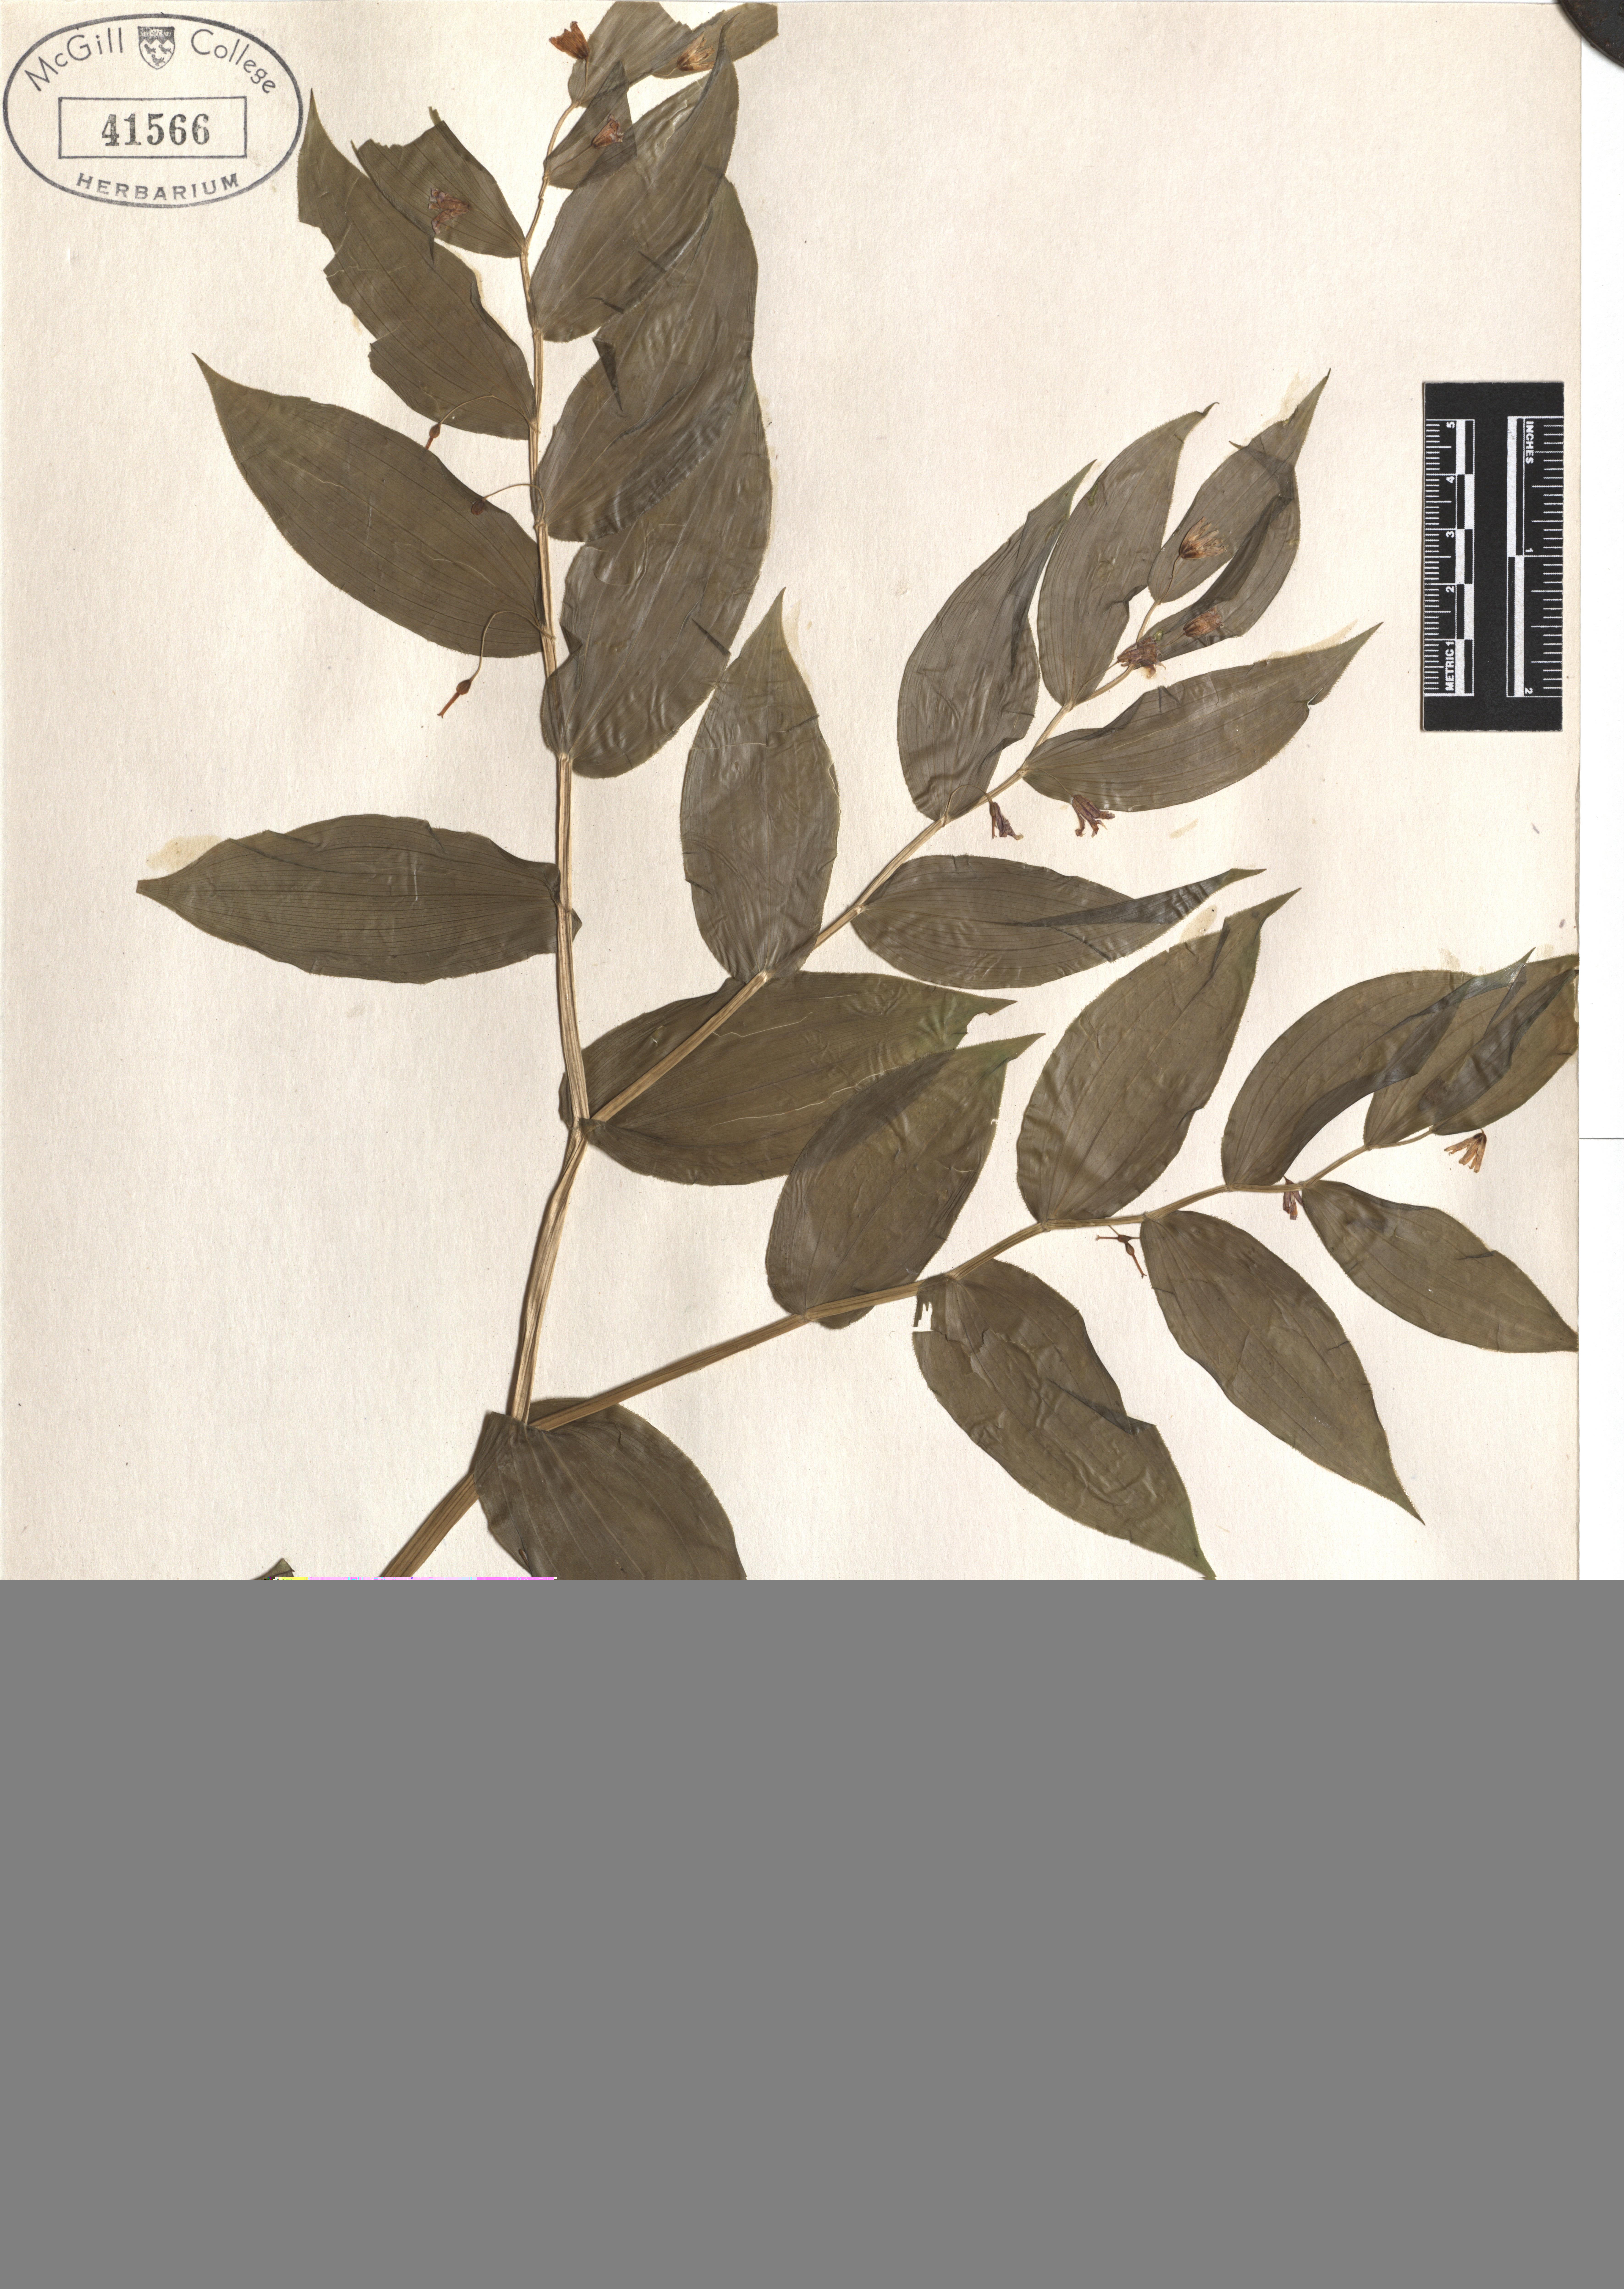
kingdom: Plantae
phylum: Tracheophyta
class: Liliopsida
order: Liliales
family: Liliaceae
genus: Streptopus
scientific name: Streptopus lanceolatus
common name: Rose mandarin
